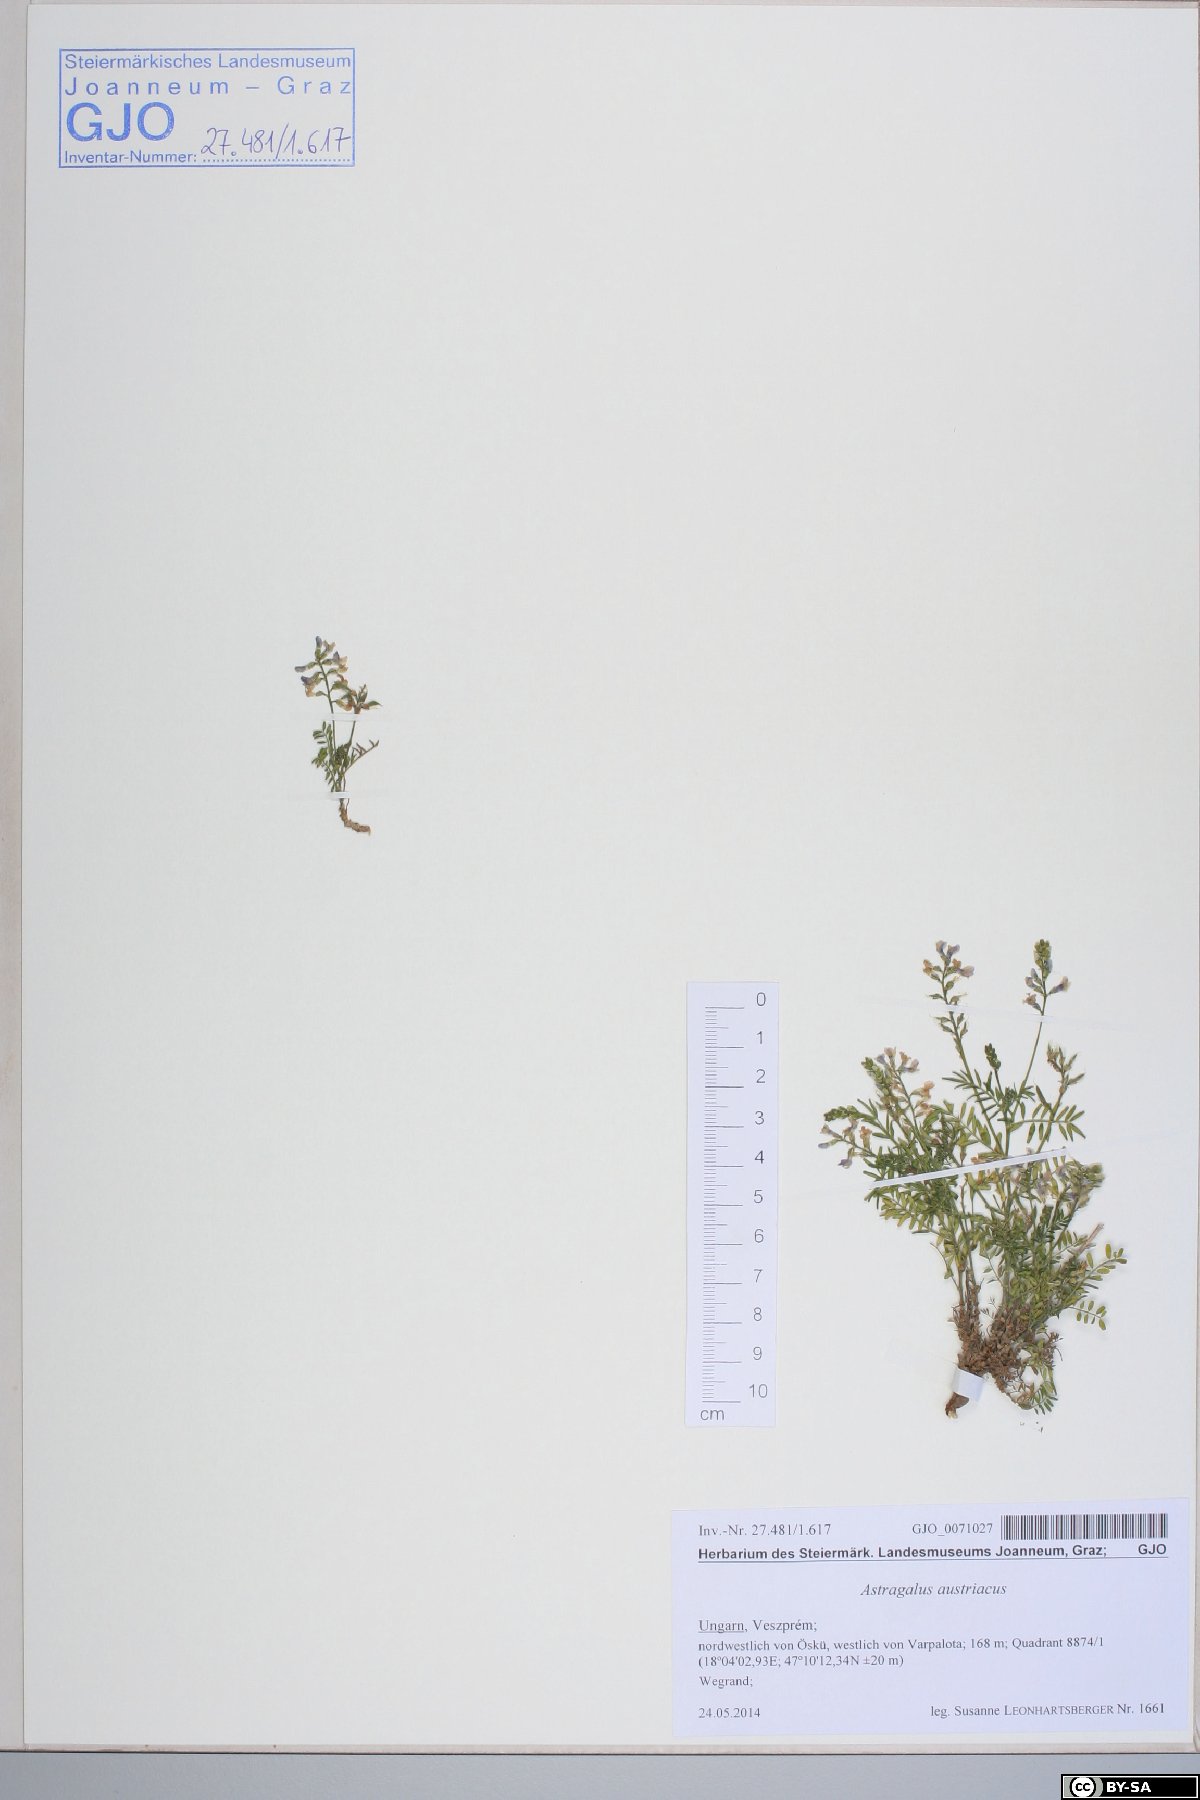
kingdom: Plantae
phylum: Tracheophyta
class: Magnoliopsida
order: Fabales
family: Fabaceae
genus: Astragalus
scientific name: Astragalus austriacus
